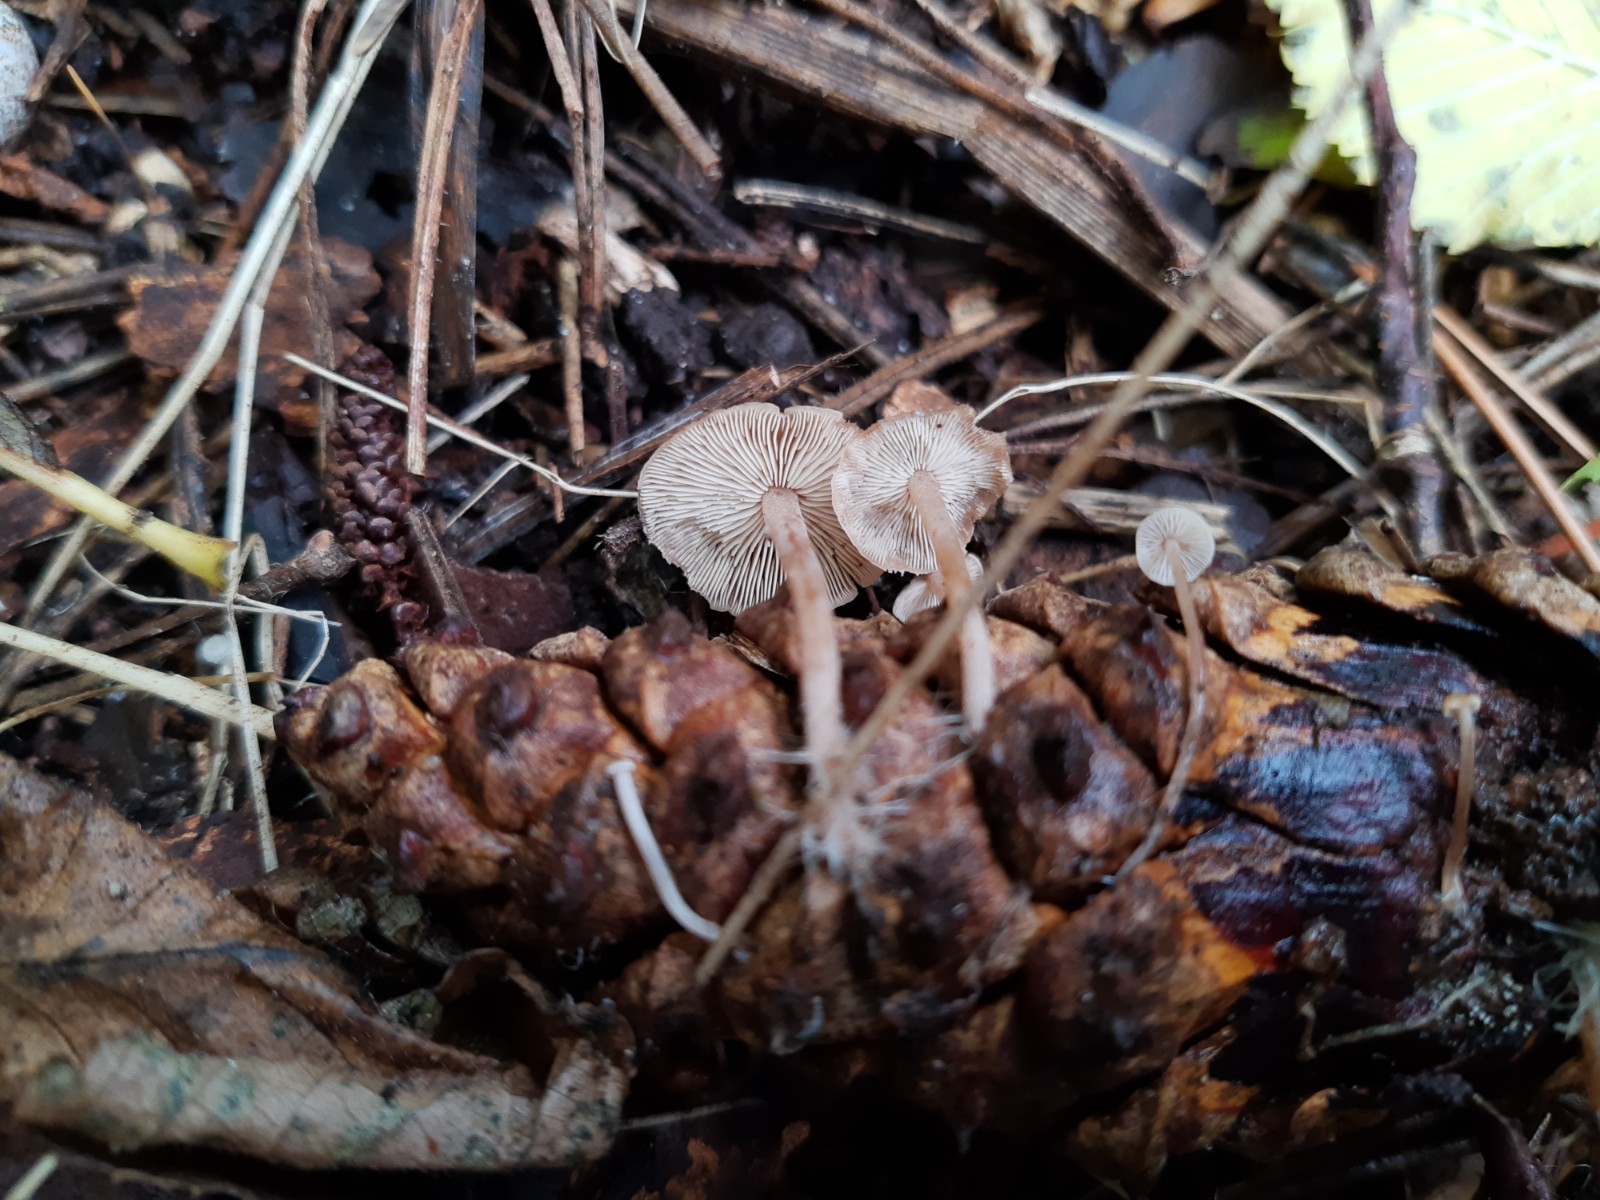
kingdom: Fungi
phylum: Basidiomycota
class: Agaricomycetes
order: Agaricales
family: Marasmiaceae
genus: Baeospora
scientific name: Baeospora myosura
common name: koglebruskhat
